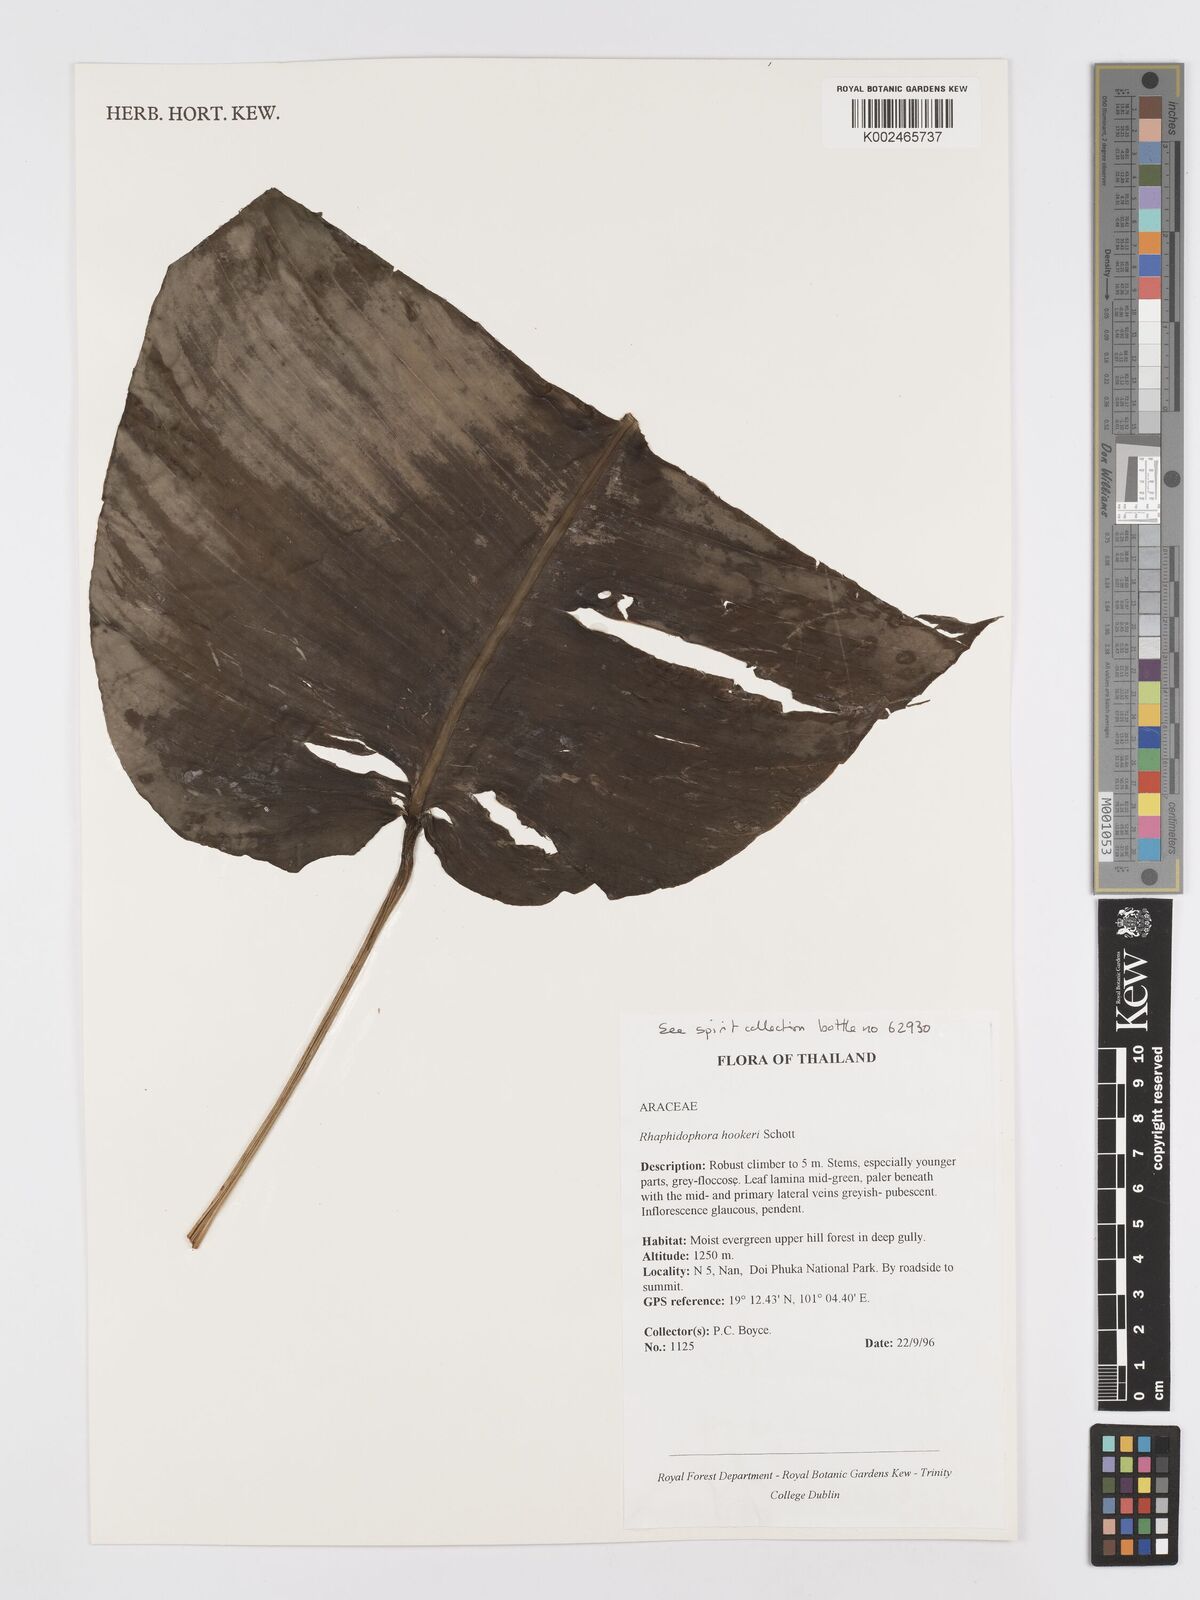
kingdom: Plantae
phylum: Tracheophyta
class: Liliopsida
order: Alismatales
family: Araceae
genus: Rhaphidophora
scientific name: Rhaphidophora hookeri
